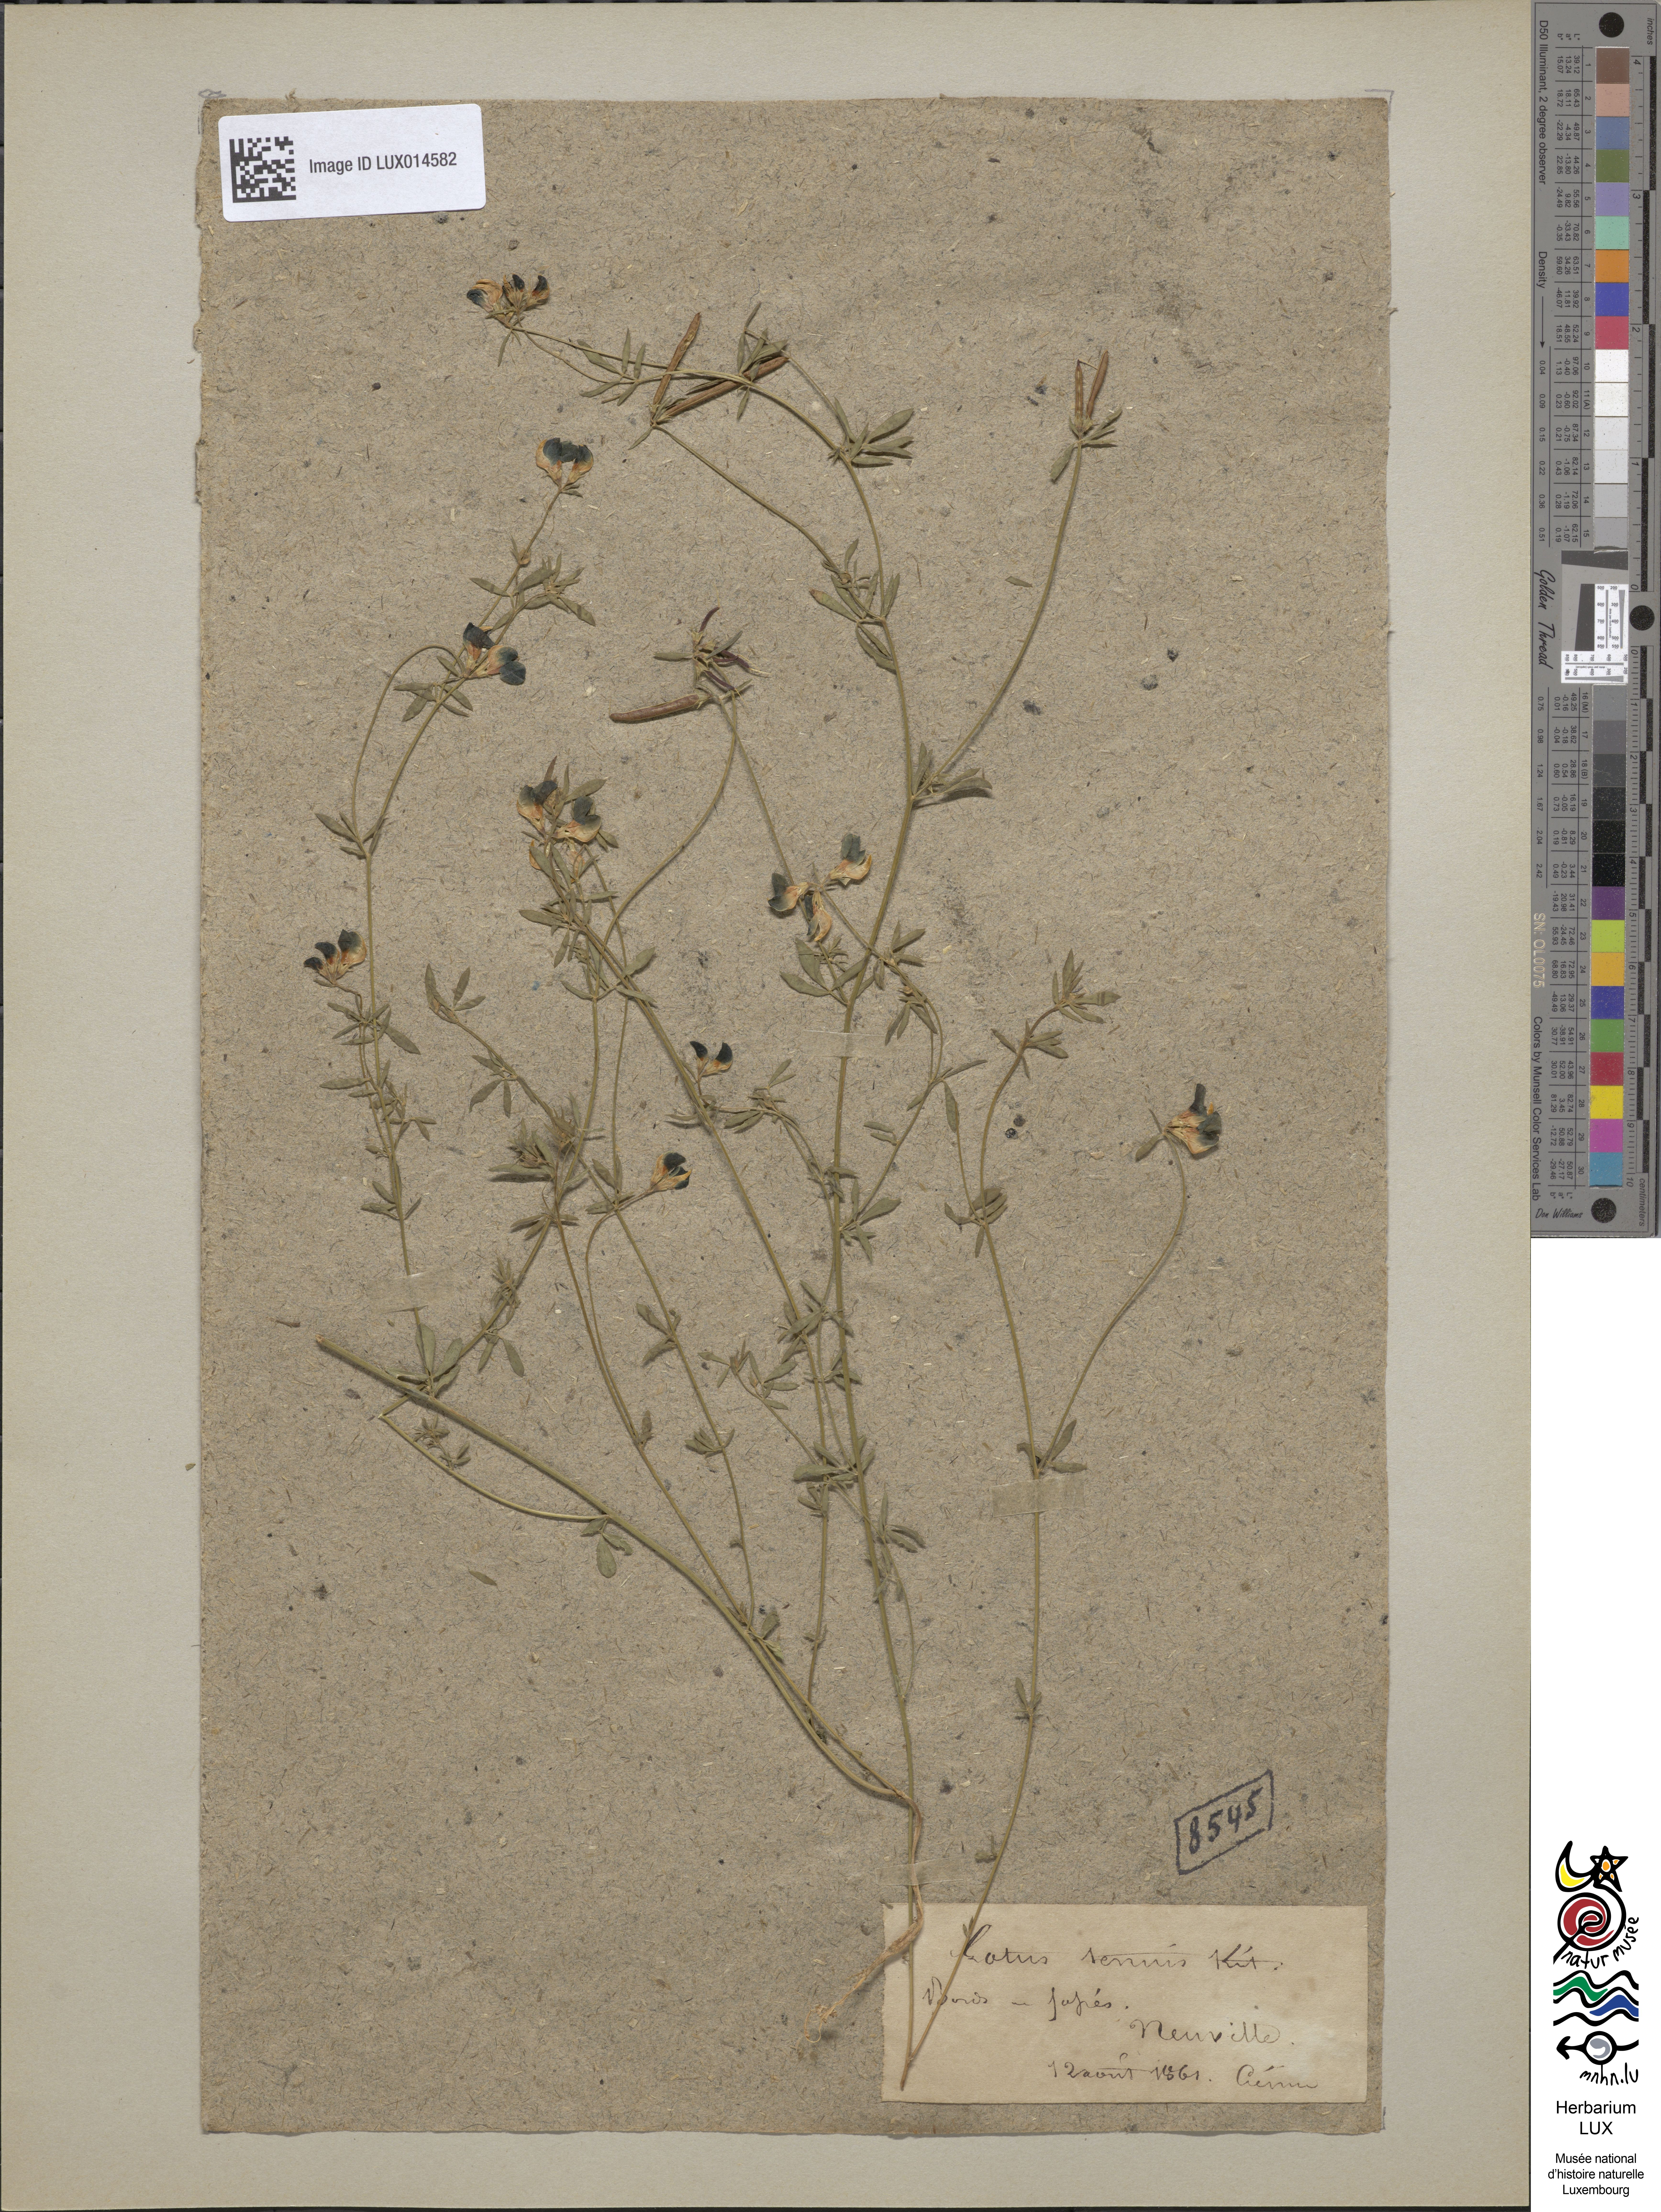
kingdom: Plantae
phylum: Tracheophyta
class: Magnoliopsida
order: Fabales
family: Fabaceae
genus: Lotus
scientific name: Lotus tenuis
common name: Narrow-leaved bird's-foot-trefoil
